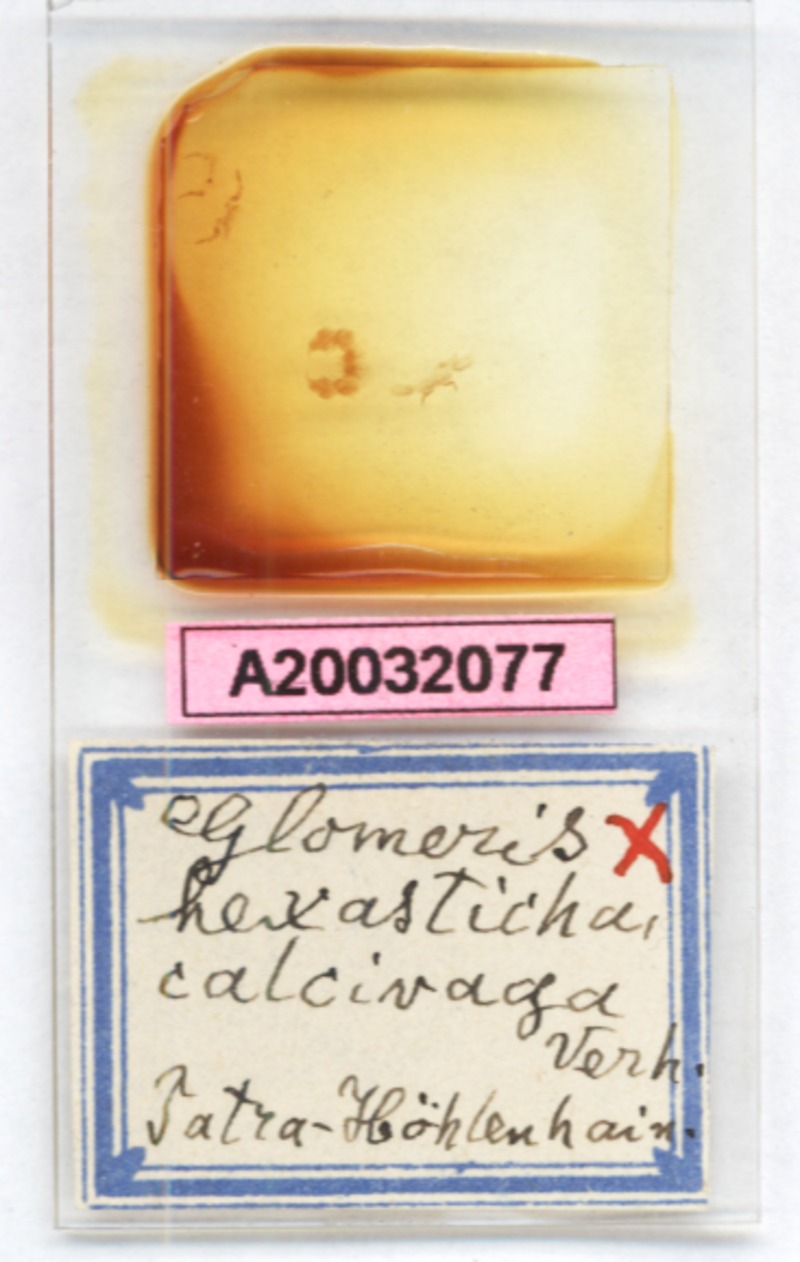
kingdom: Animalia
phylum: Arthropoda
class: Diplopoda
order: Glomerida
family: Glomeridae
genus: Glomeris
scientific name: Glomeris hexasticha
